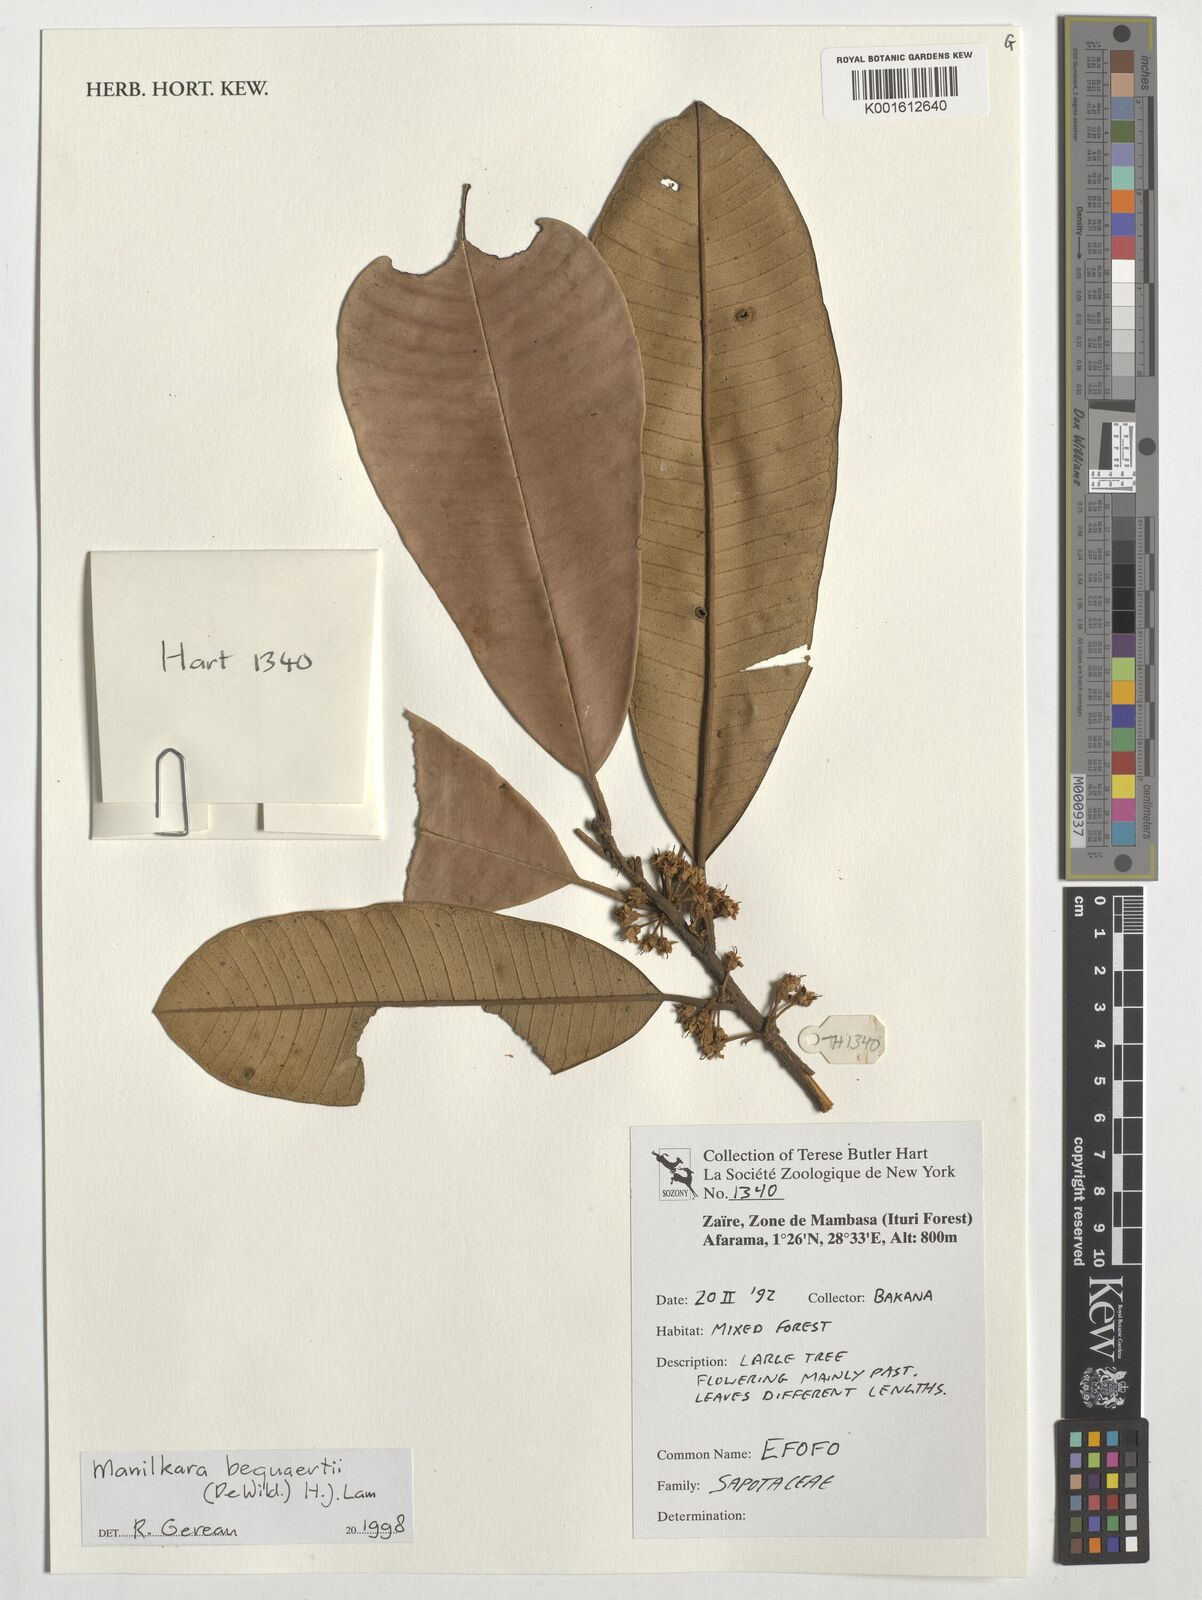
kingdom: Plantae
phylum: Tracheophyta
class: Magnoliopsida
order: Ericales
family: Sapotaceae
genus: Manilkara
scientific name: Manilkara bequaertii
